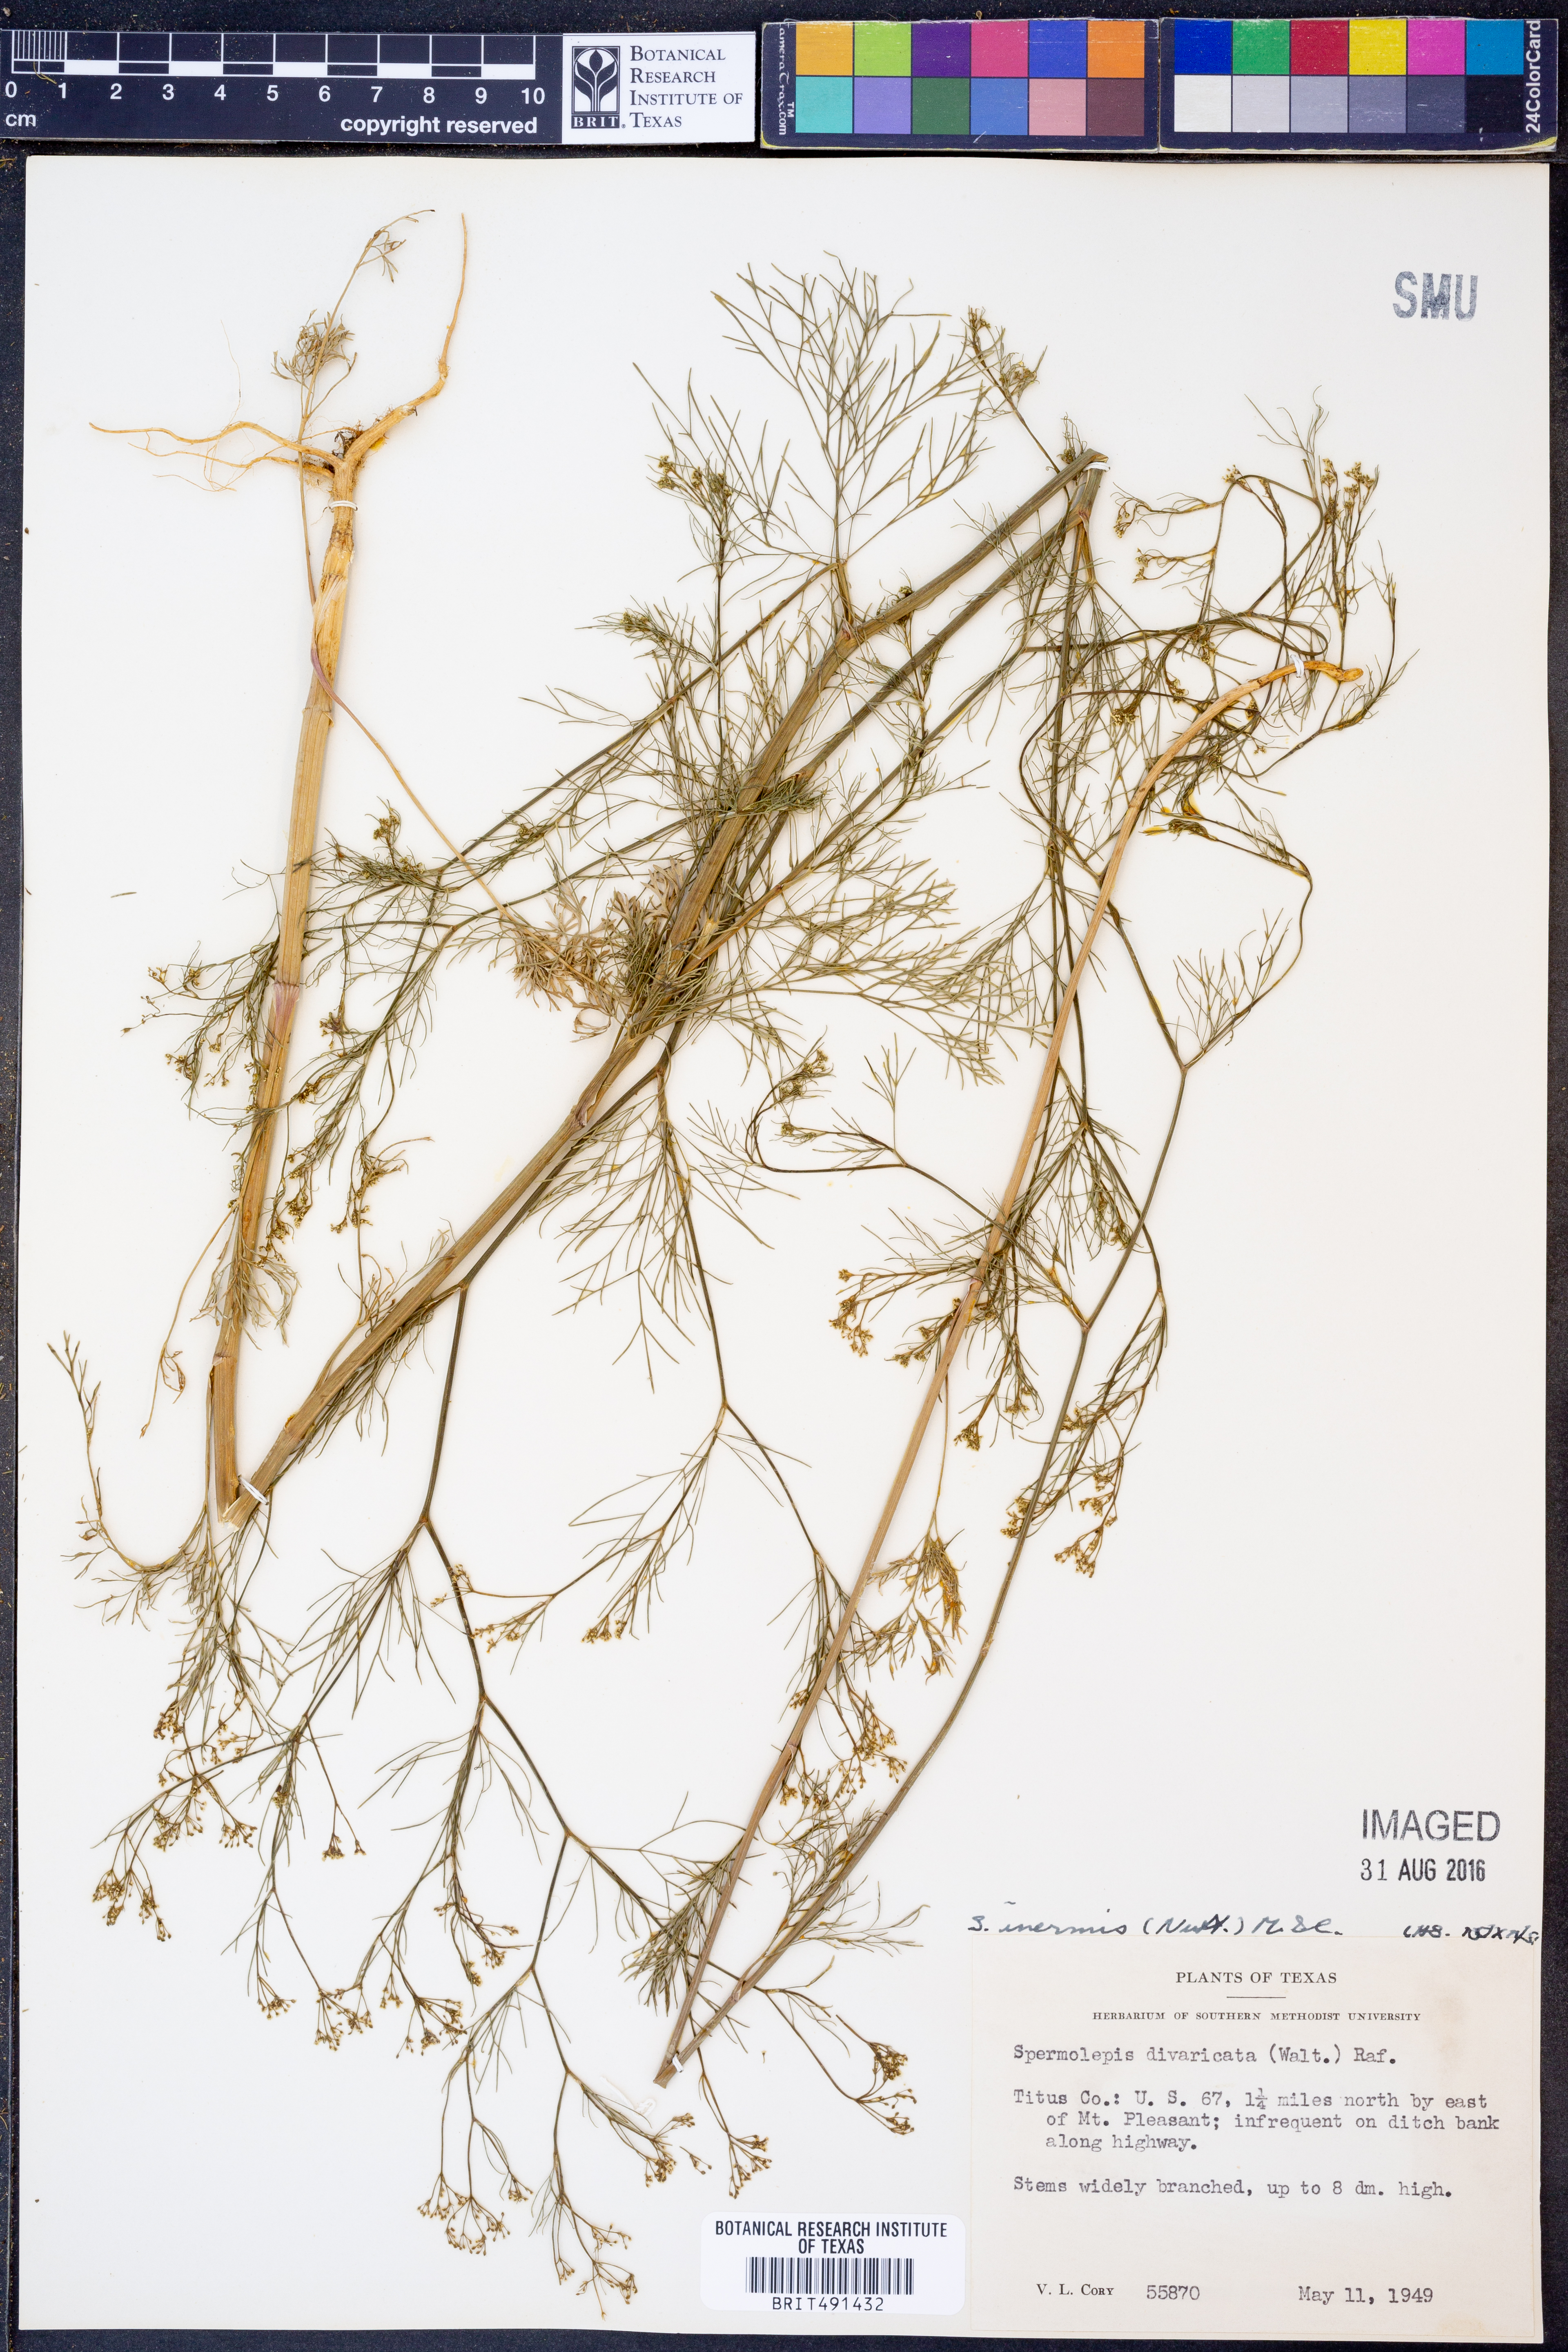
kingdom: Plantae
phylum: Tracheophyta
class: Magnoliopsida
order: Apiales
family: Apiaceae
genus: Spermolepis
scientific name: Spermolepis inermis
